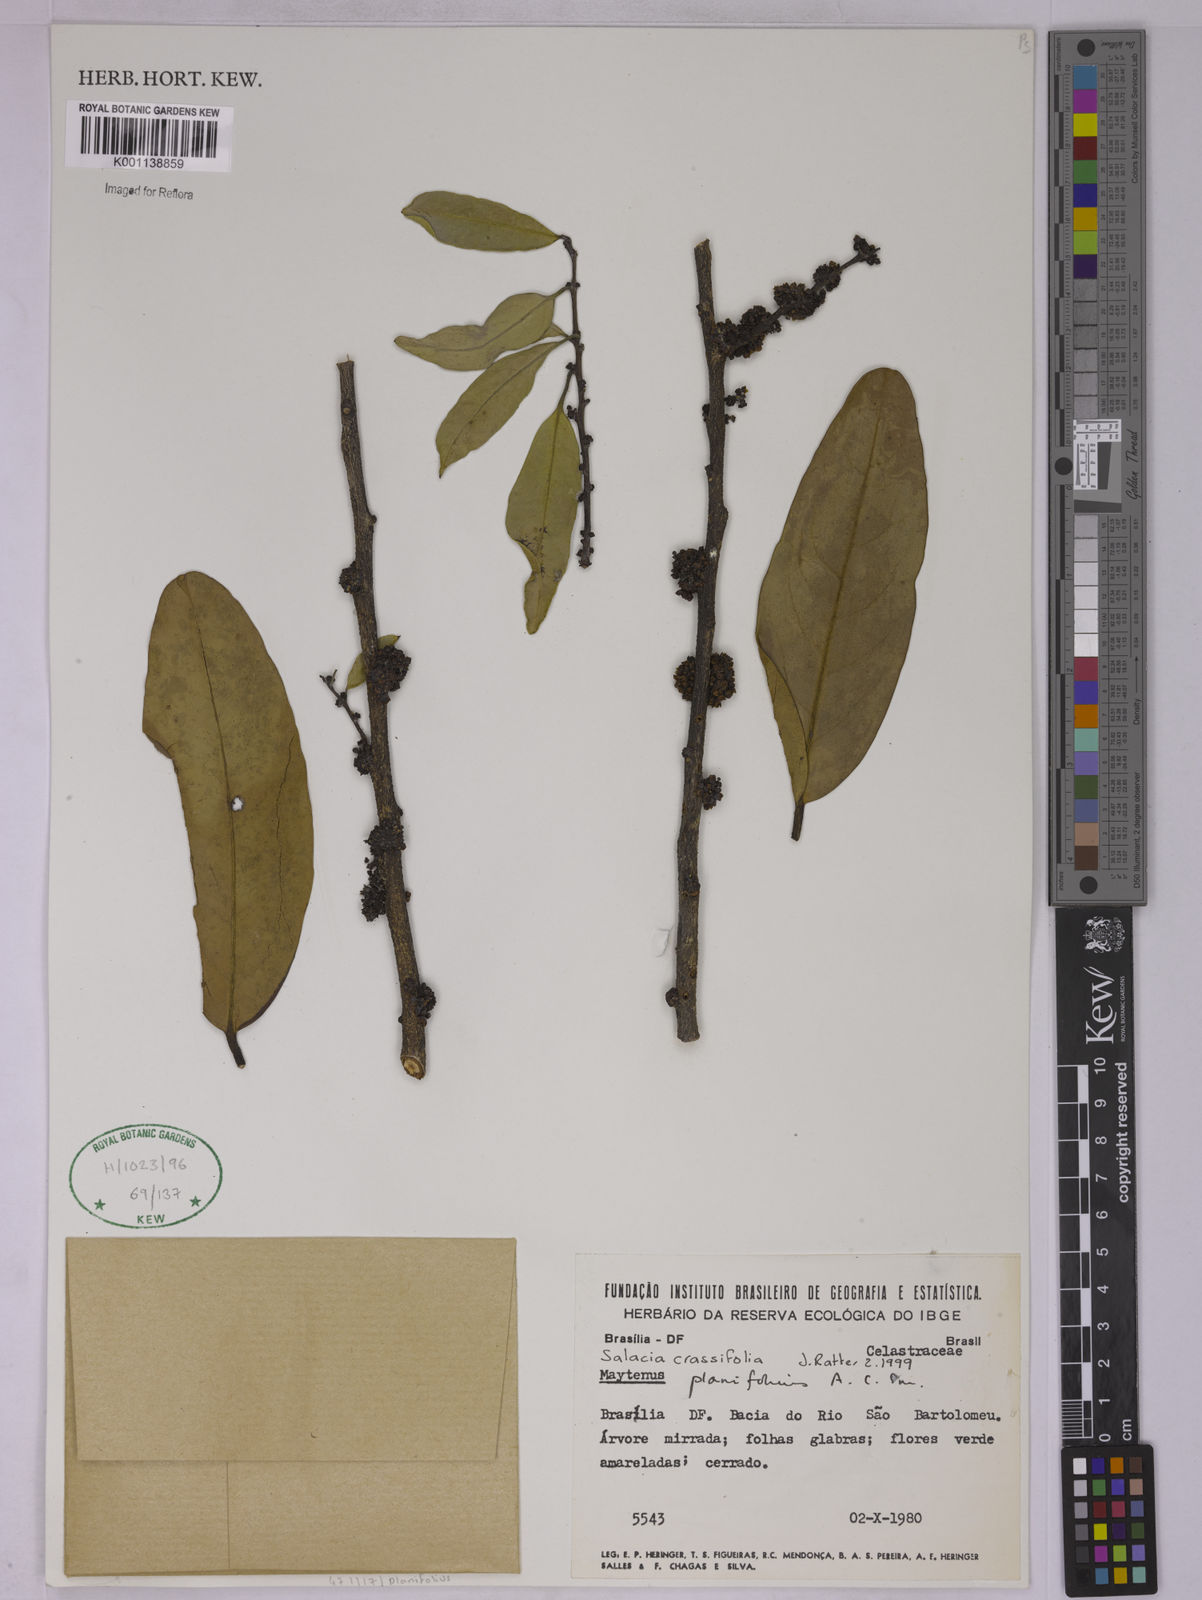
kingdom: Plantae
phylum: Tracheophyta
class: Magnoliopsida
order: Celastrales
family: Celastraceae
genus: Salacia
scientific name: Salacia crassifolia
